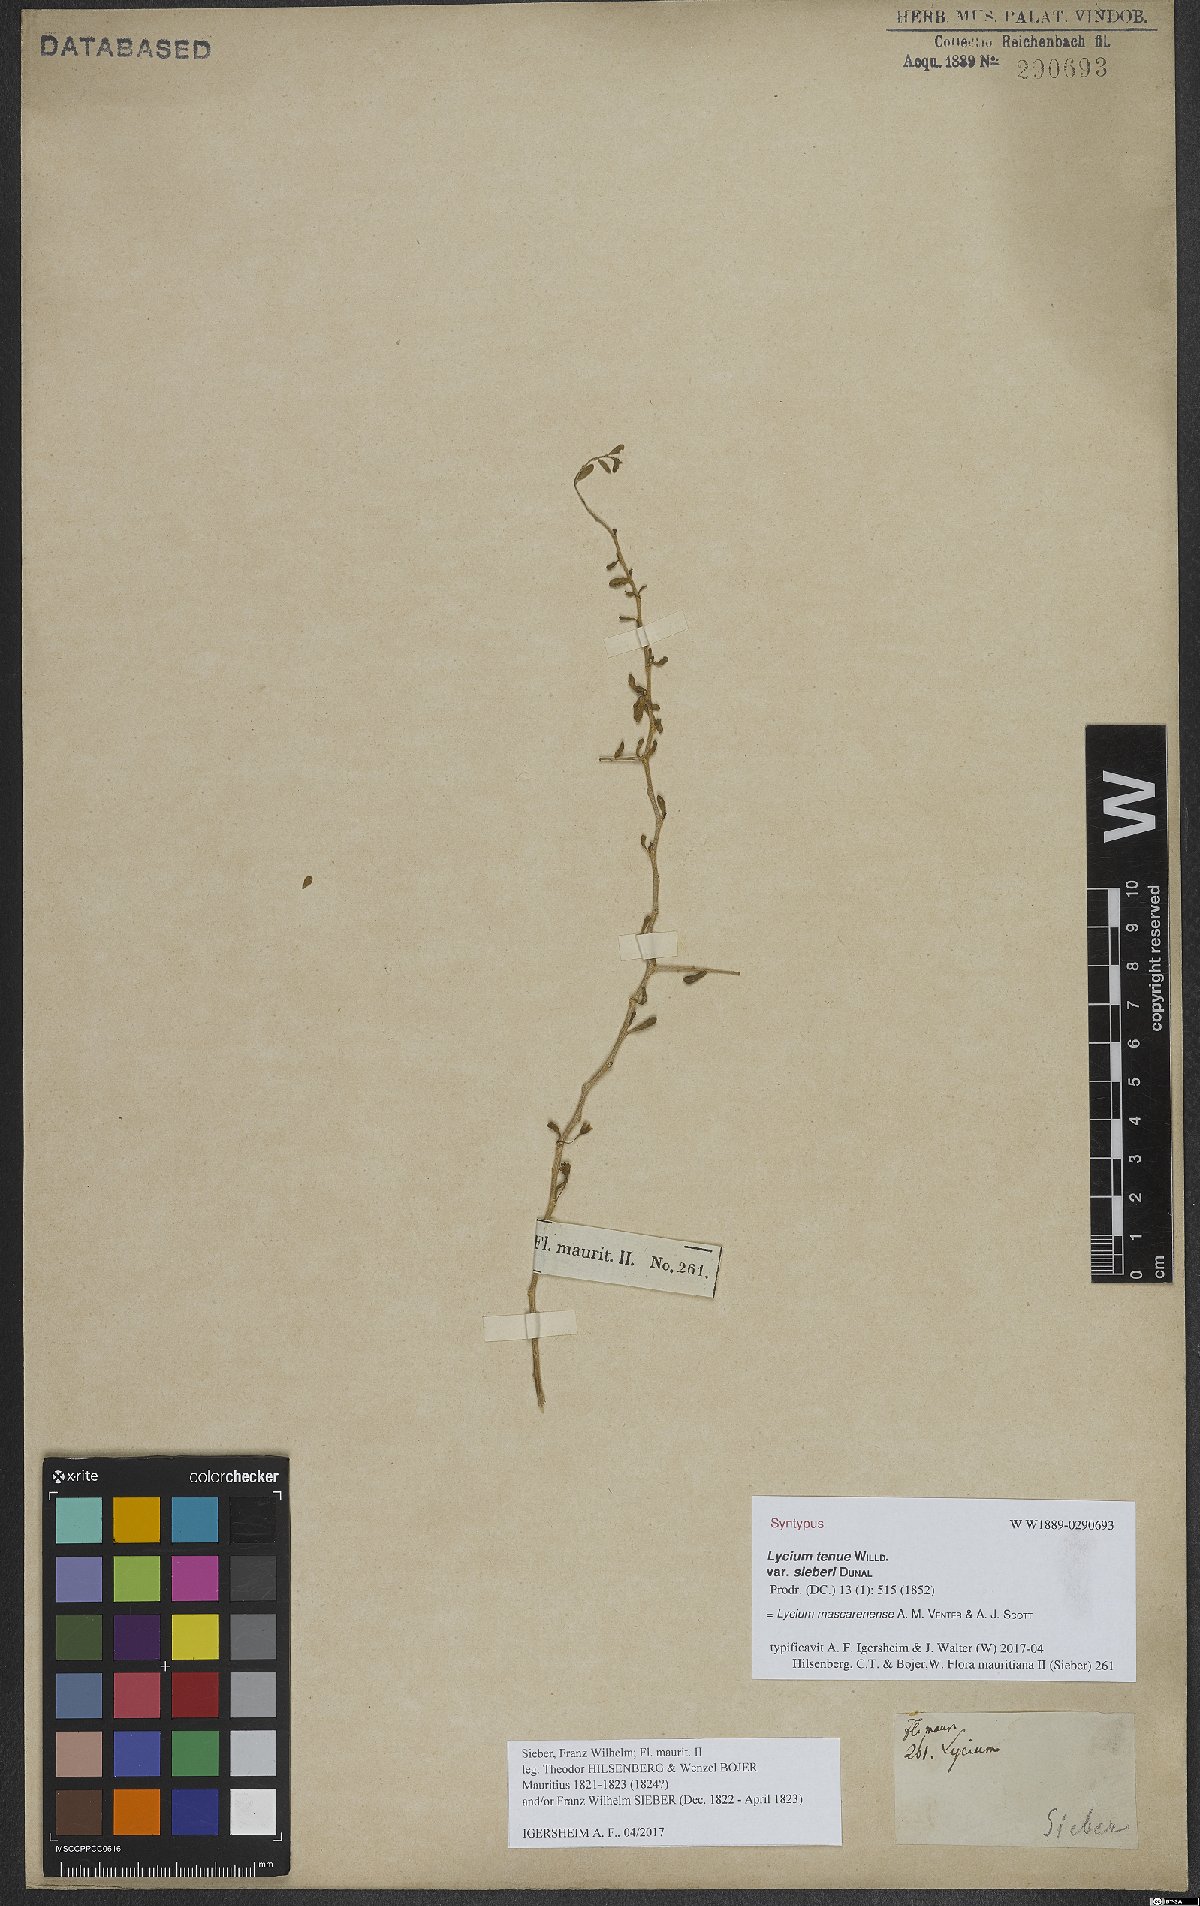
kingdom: Plantae
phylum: Tracheophyta
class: Magnoliopsida
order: Solanales
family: Solanaceae
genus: Lycium
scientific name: Lycium mascarenense
